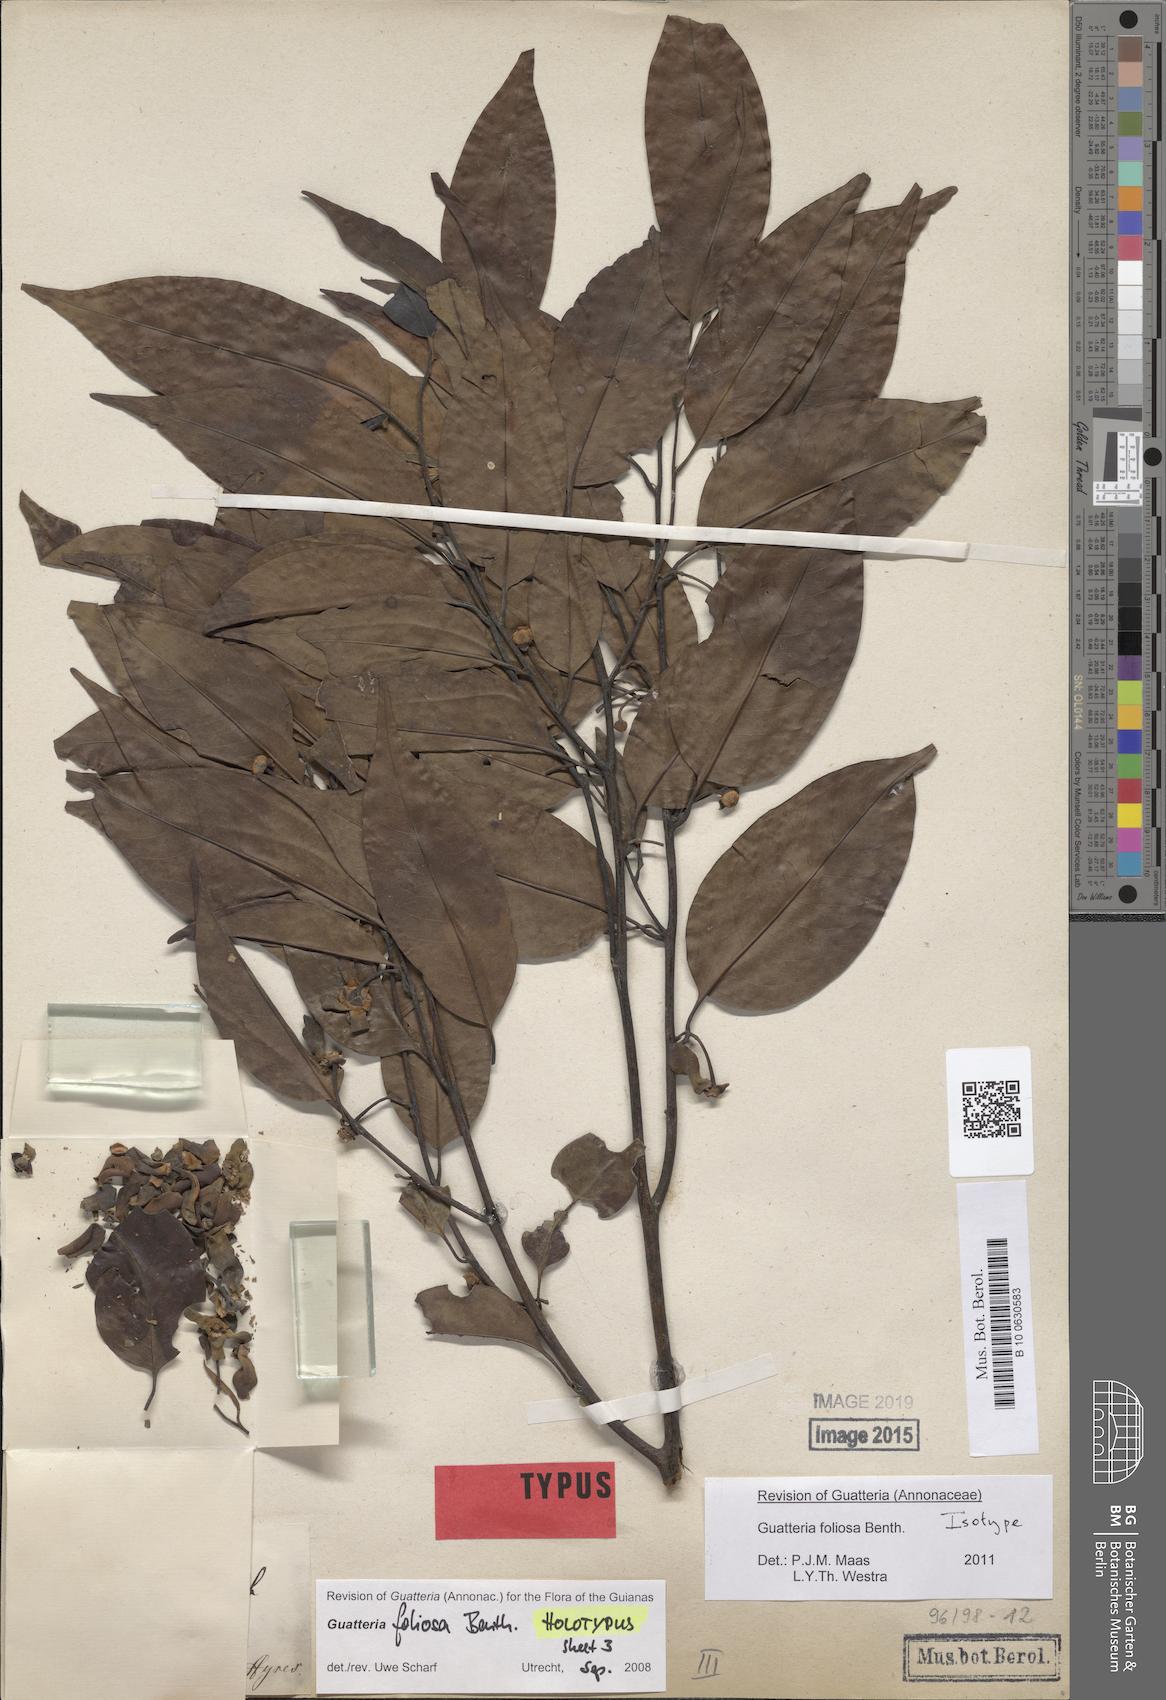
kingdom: Plantae
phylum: Tracheophyta
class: Magnoliopsida
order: Magnoliales
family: Annonaceae
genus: Guatteria
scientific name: Guatteria foliosa
